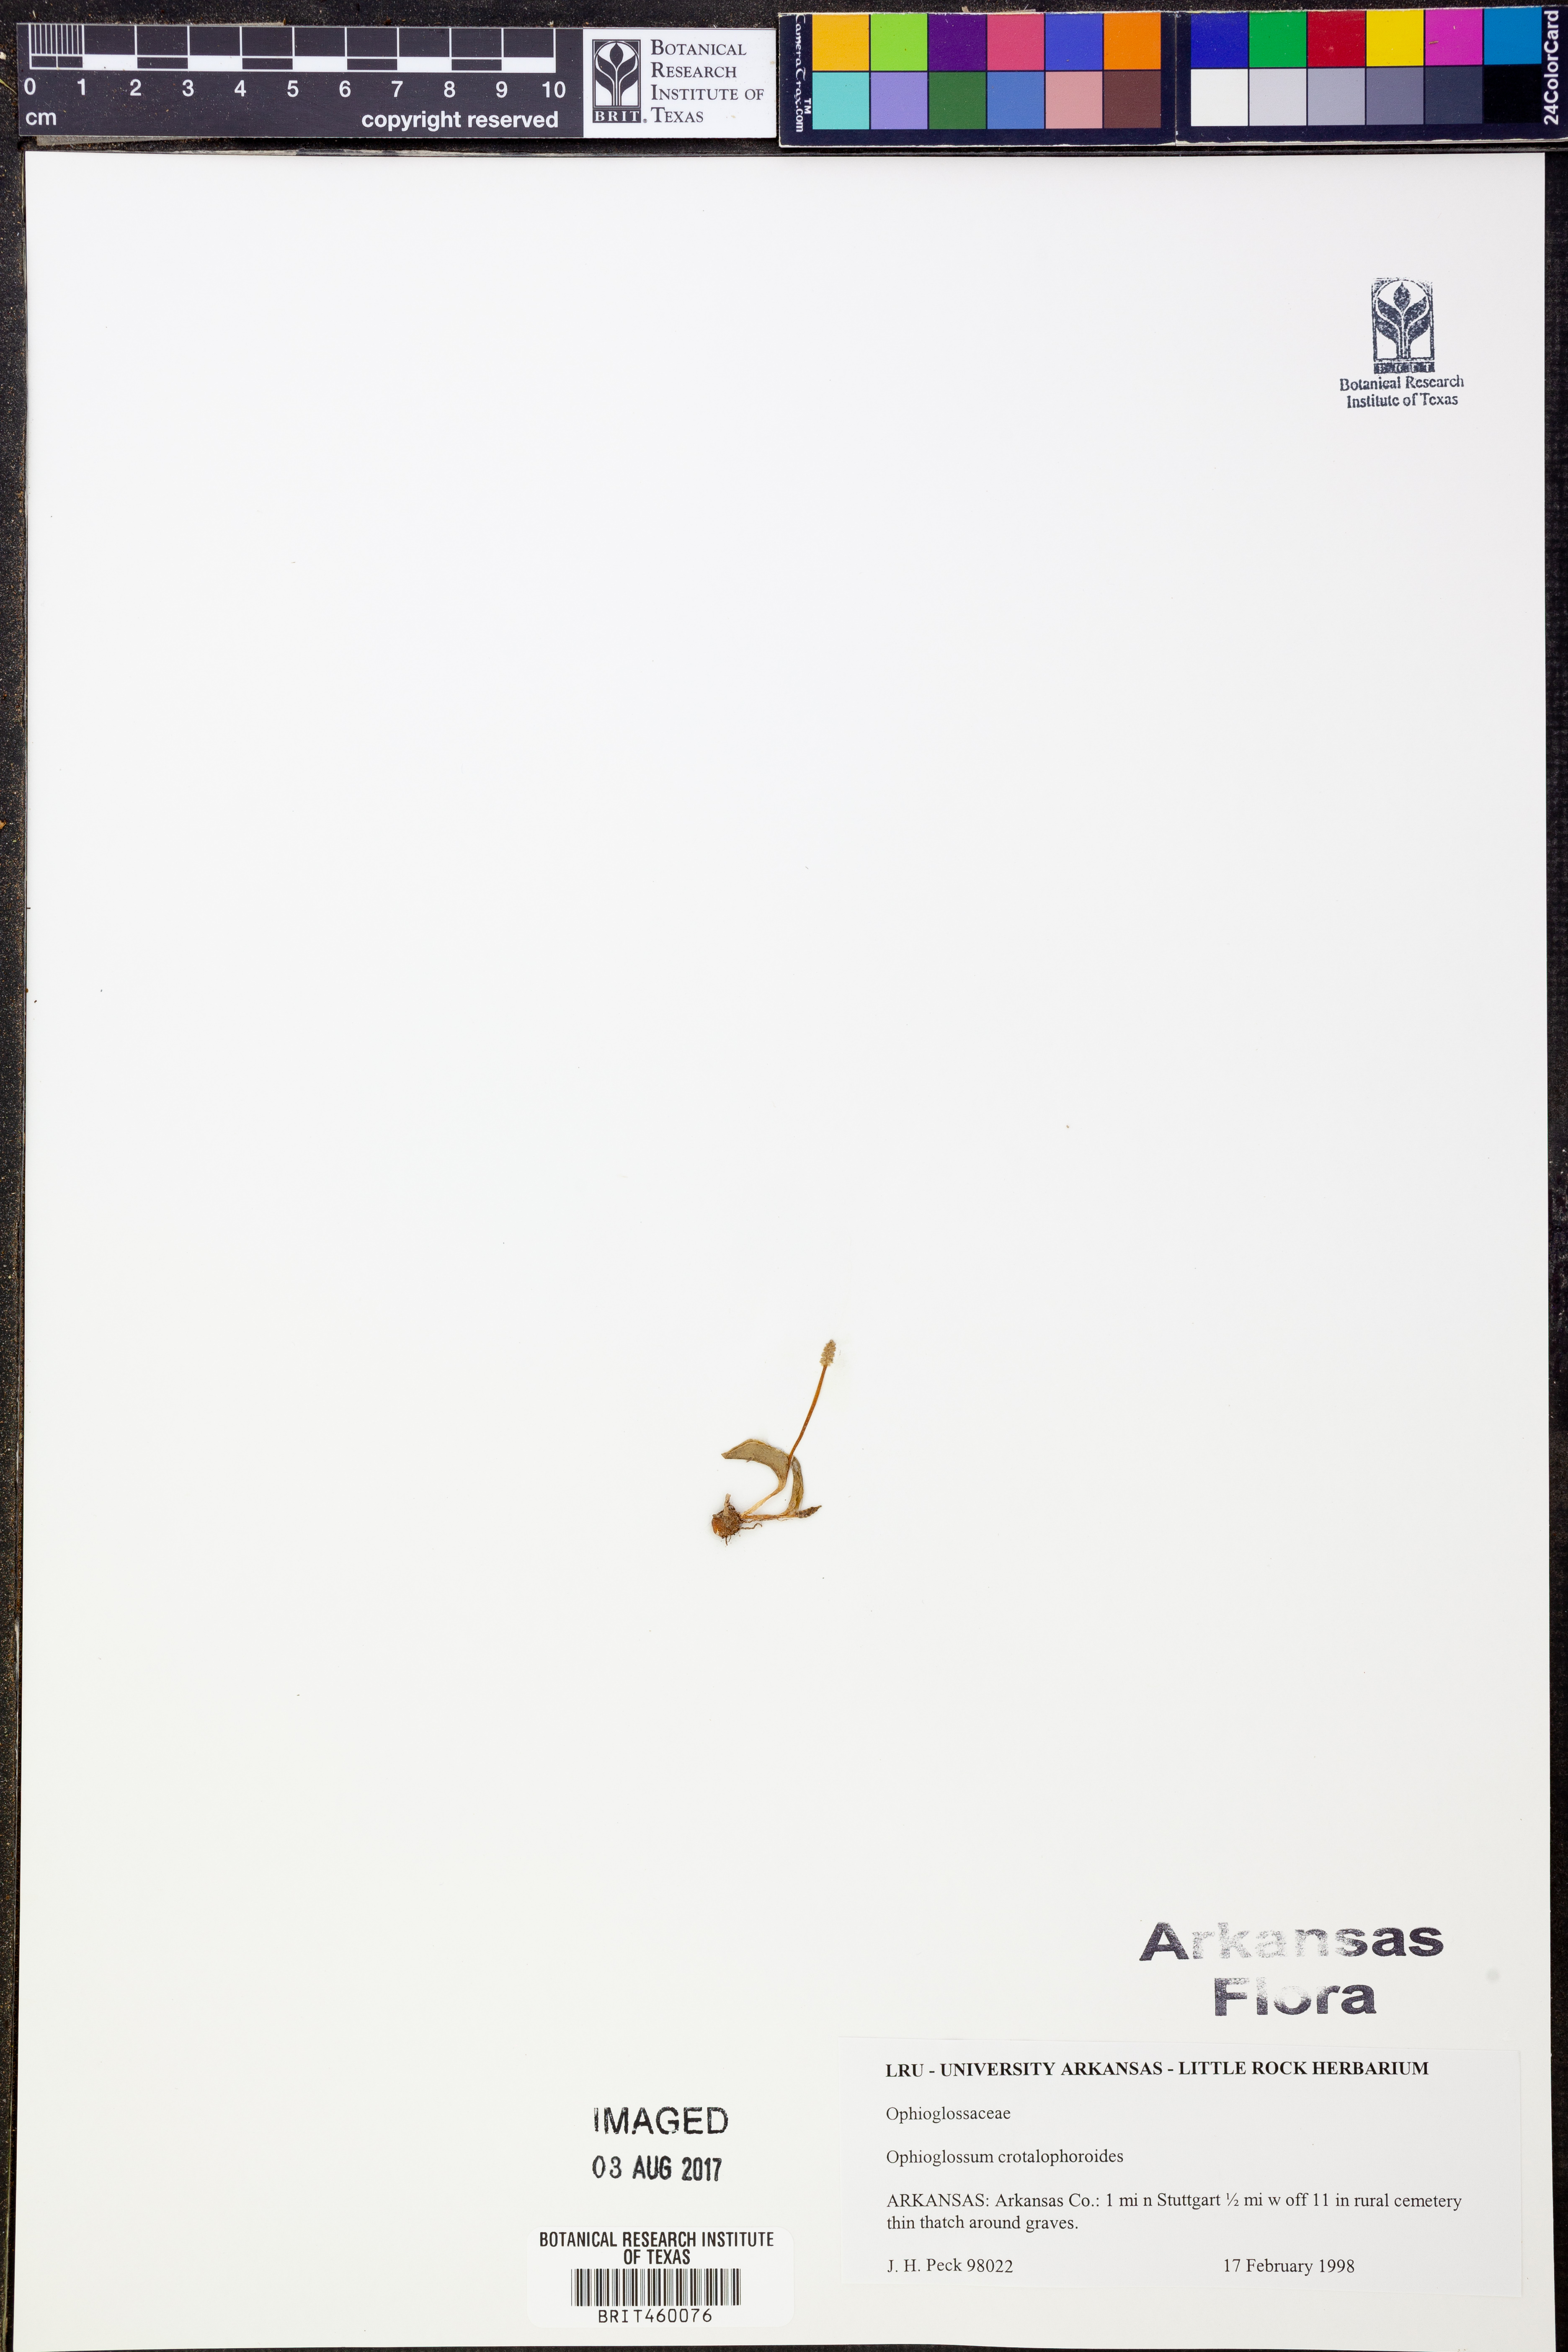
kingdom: Plantae
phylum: Tracheophyta
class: Polypodiopsida
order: Ophioglossales
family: Ophioglossaceae
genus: Ophioglossum
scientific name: Ophioglossum crotalophoroides
